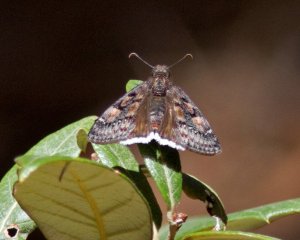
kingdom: Animalia
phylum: Arthropoda
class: Insecta
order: Lepidoptera
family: Hesperiidae
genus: Erynnis
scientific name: Erynnis pacuvius
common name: Pacuvius Duskywing
